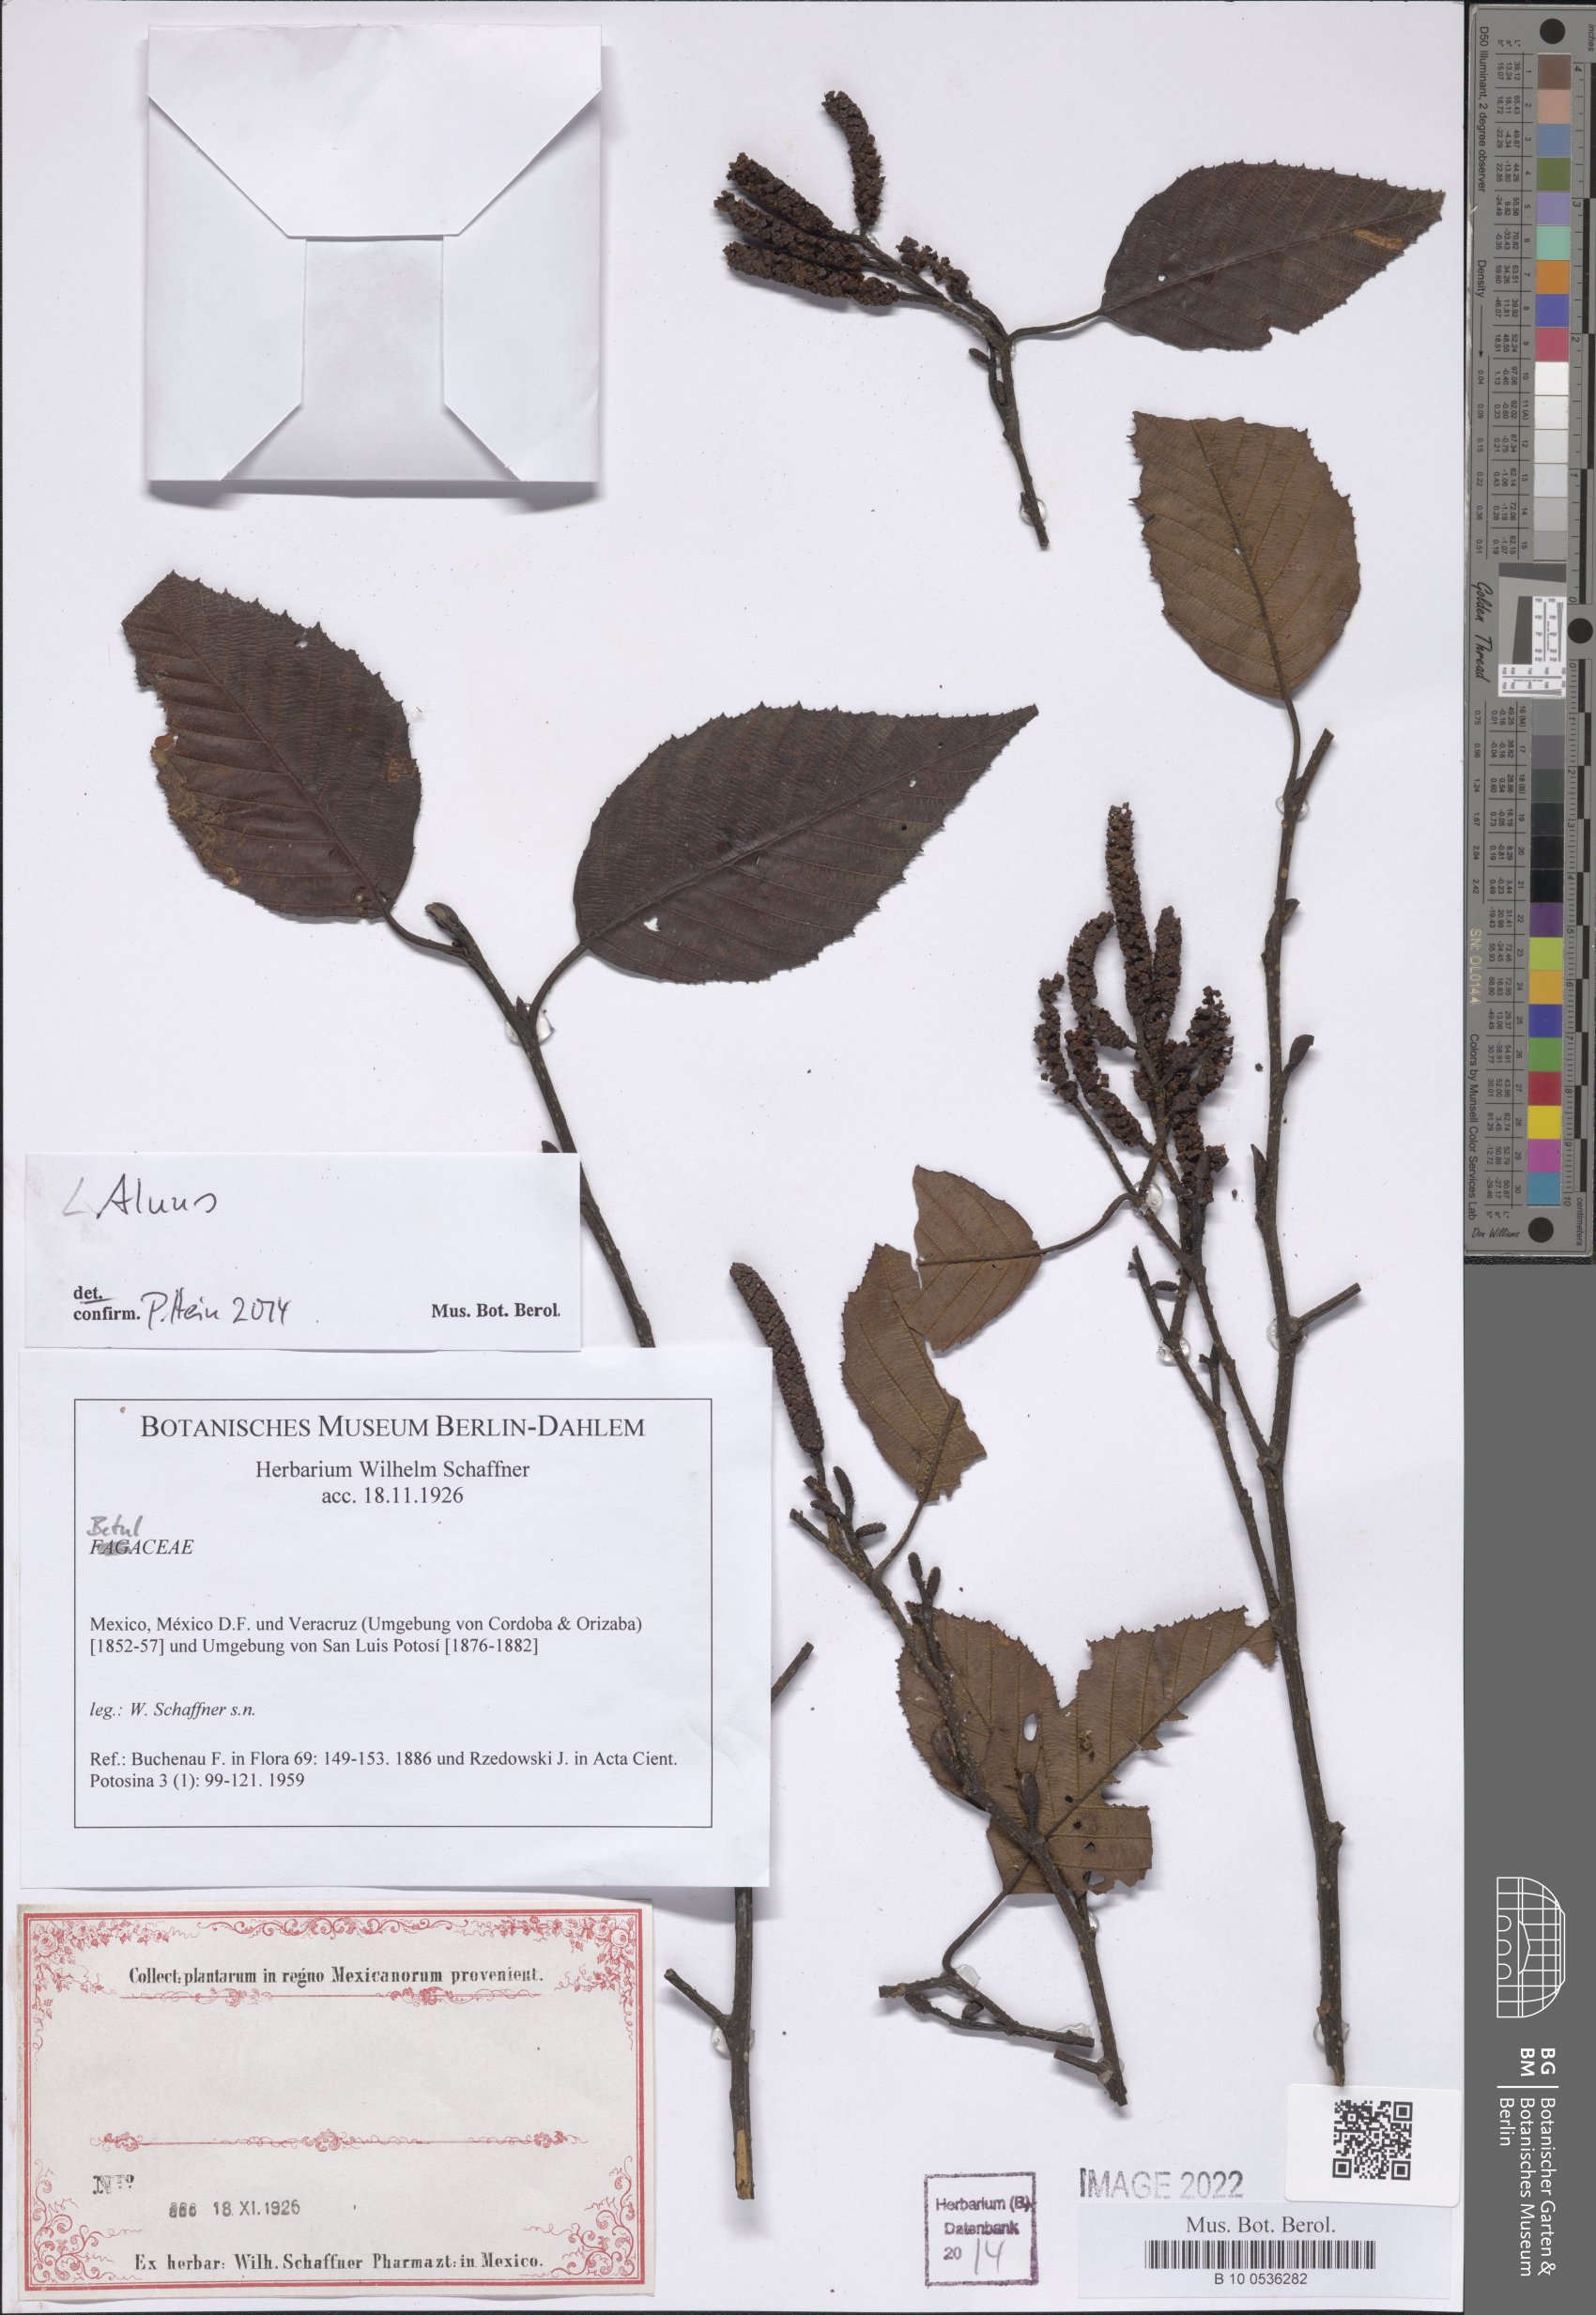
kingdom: Plantae
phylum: Tracheophyta
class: Magnoliopsida
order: Fagales
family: Betulaceae
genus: Alnus
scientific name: Alnus
